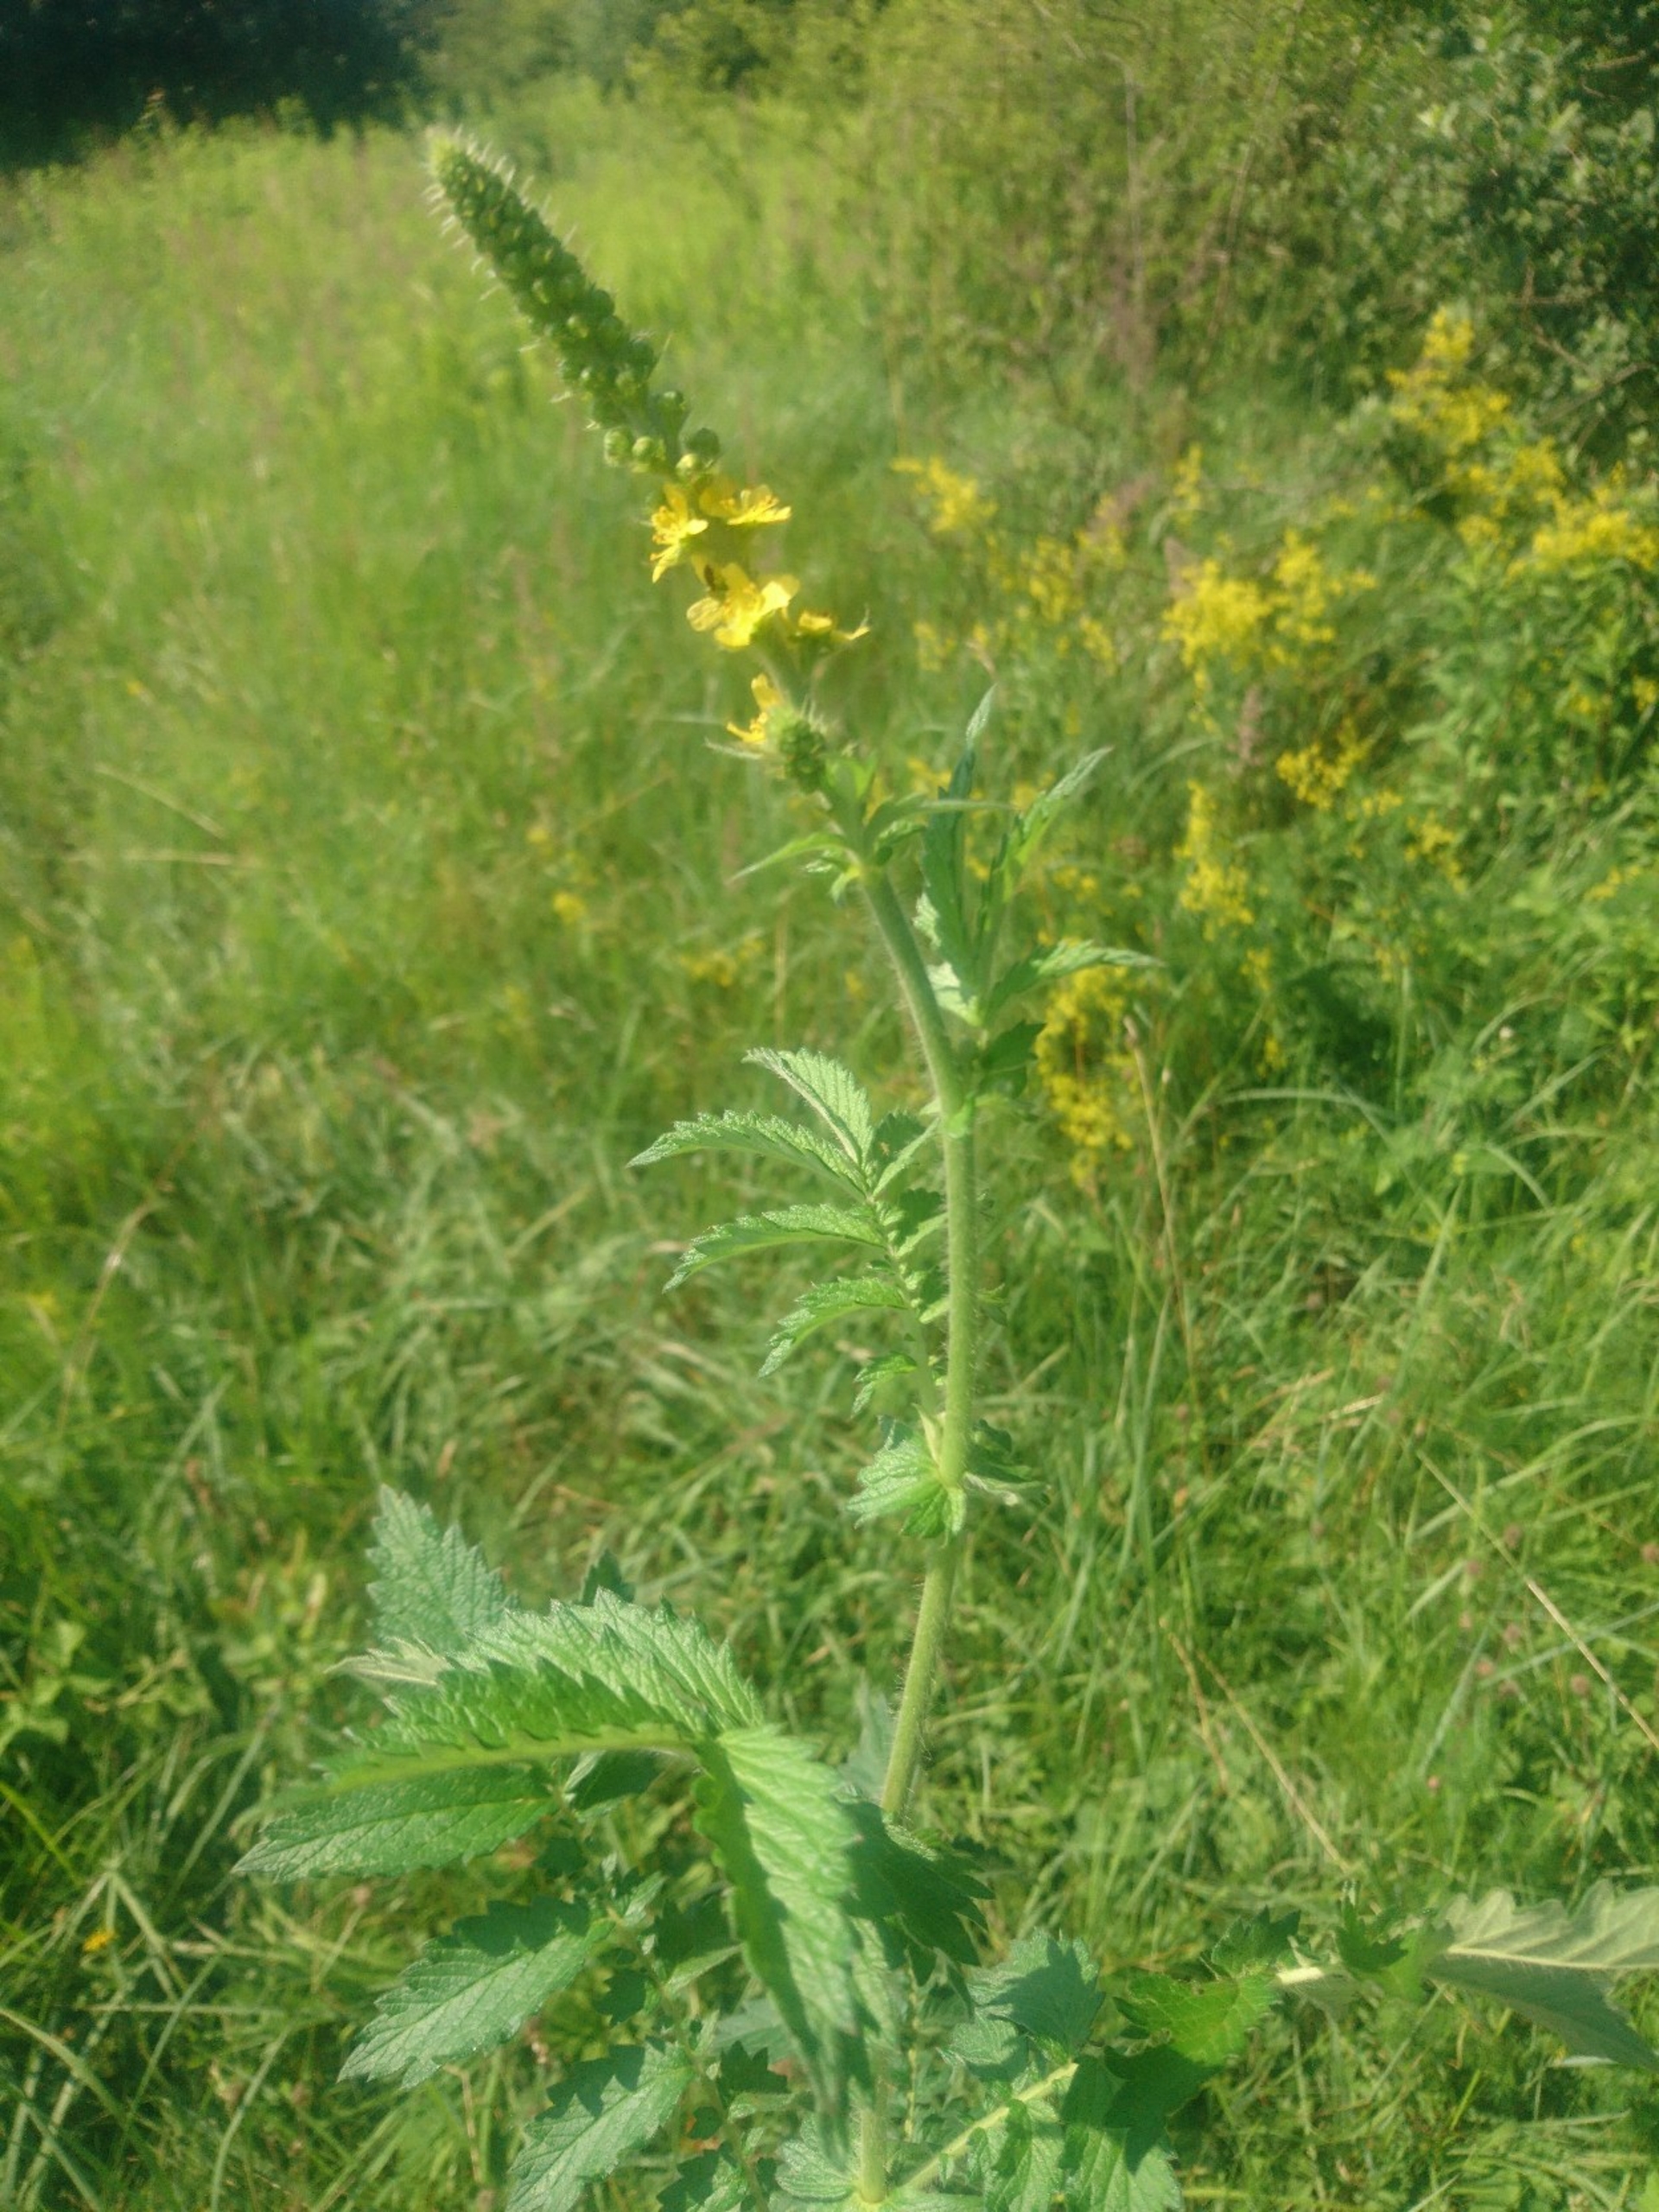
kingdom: Plantae
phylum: Tracheophyta
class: Magnoliopsida
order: Rosales
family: Rosaceae
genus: Agrimonia
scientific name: Agrimonia eupatoria
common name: Almindelig agermåne
